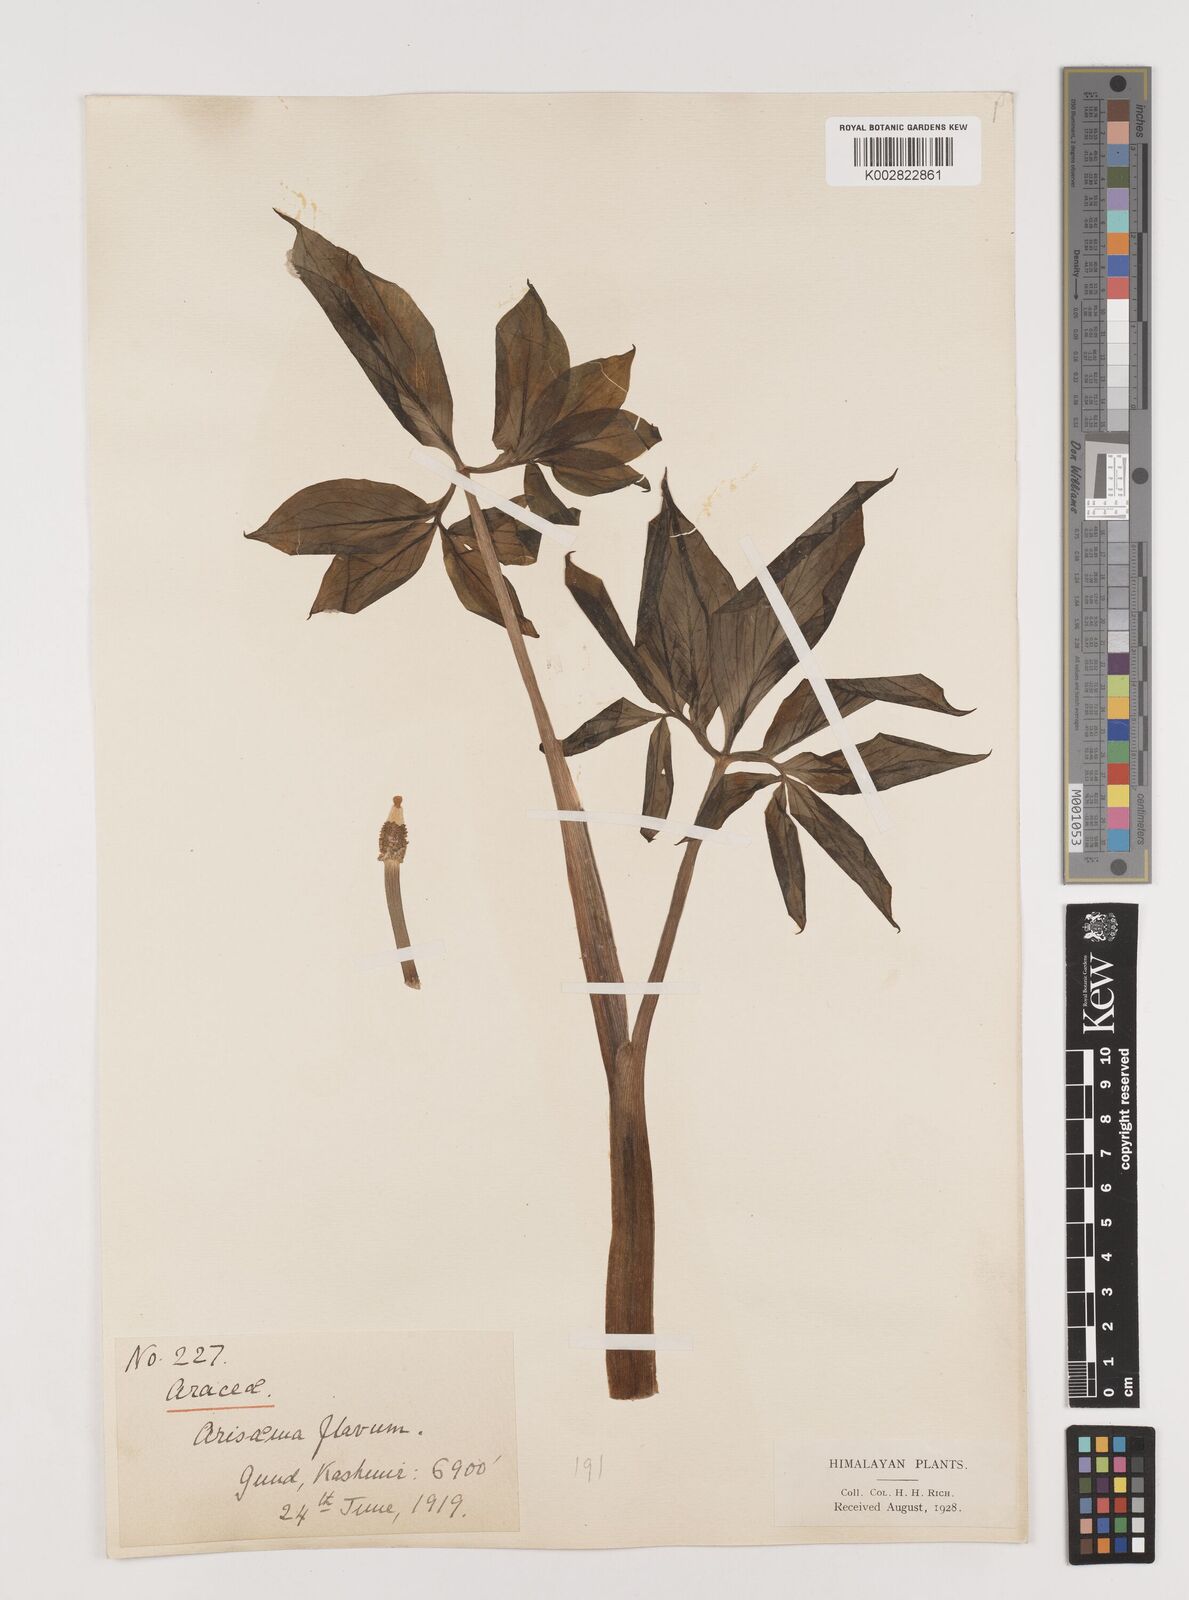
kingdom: Plantae
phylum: Tracheophyta
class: Liliopsida
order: Alismatales
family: Araceae
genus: Arisaema
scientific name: Arisaema flavum
